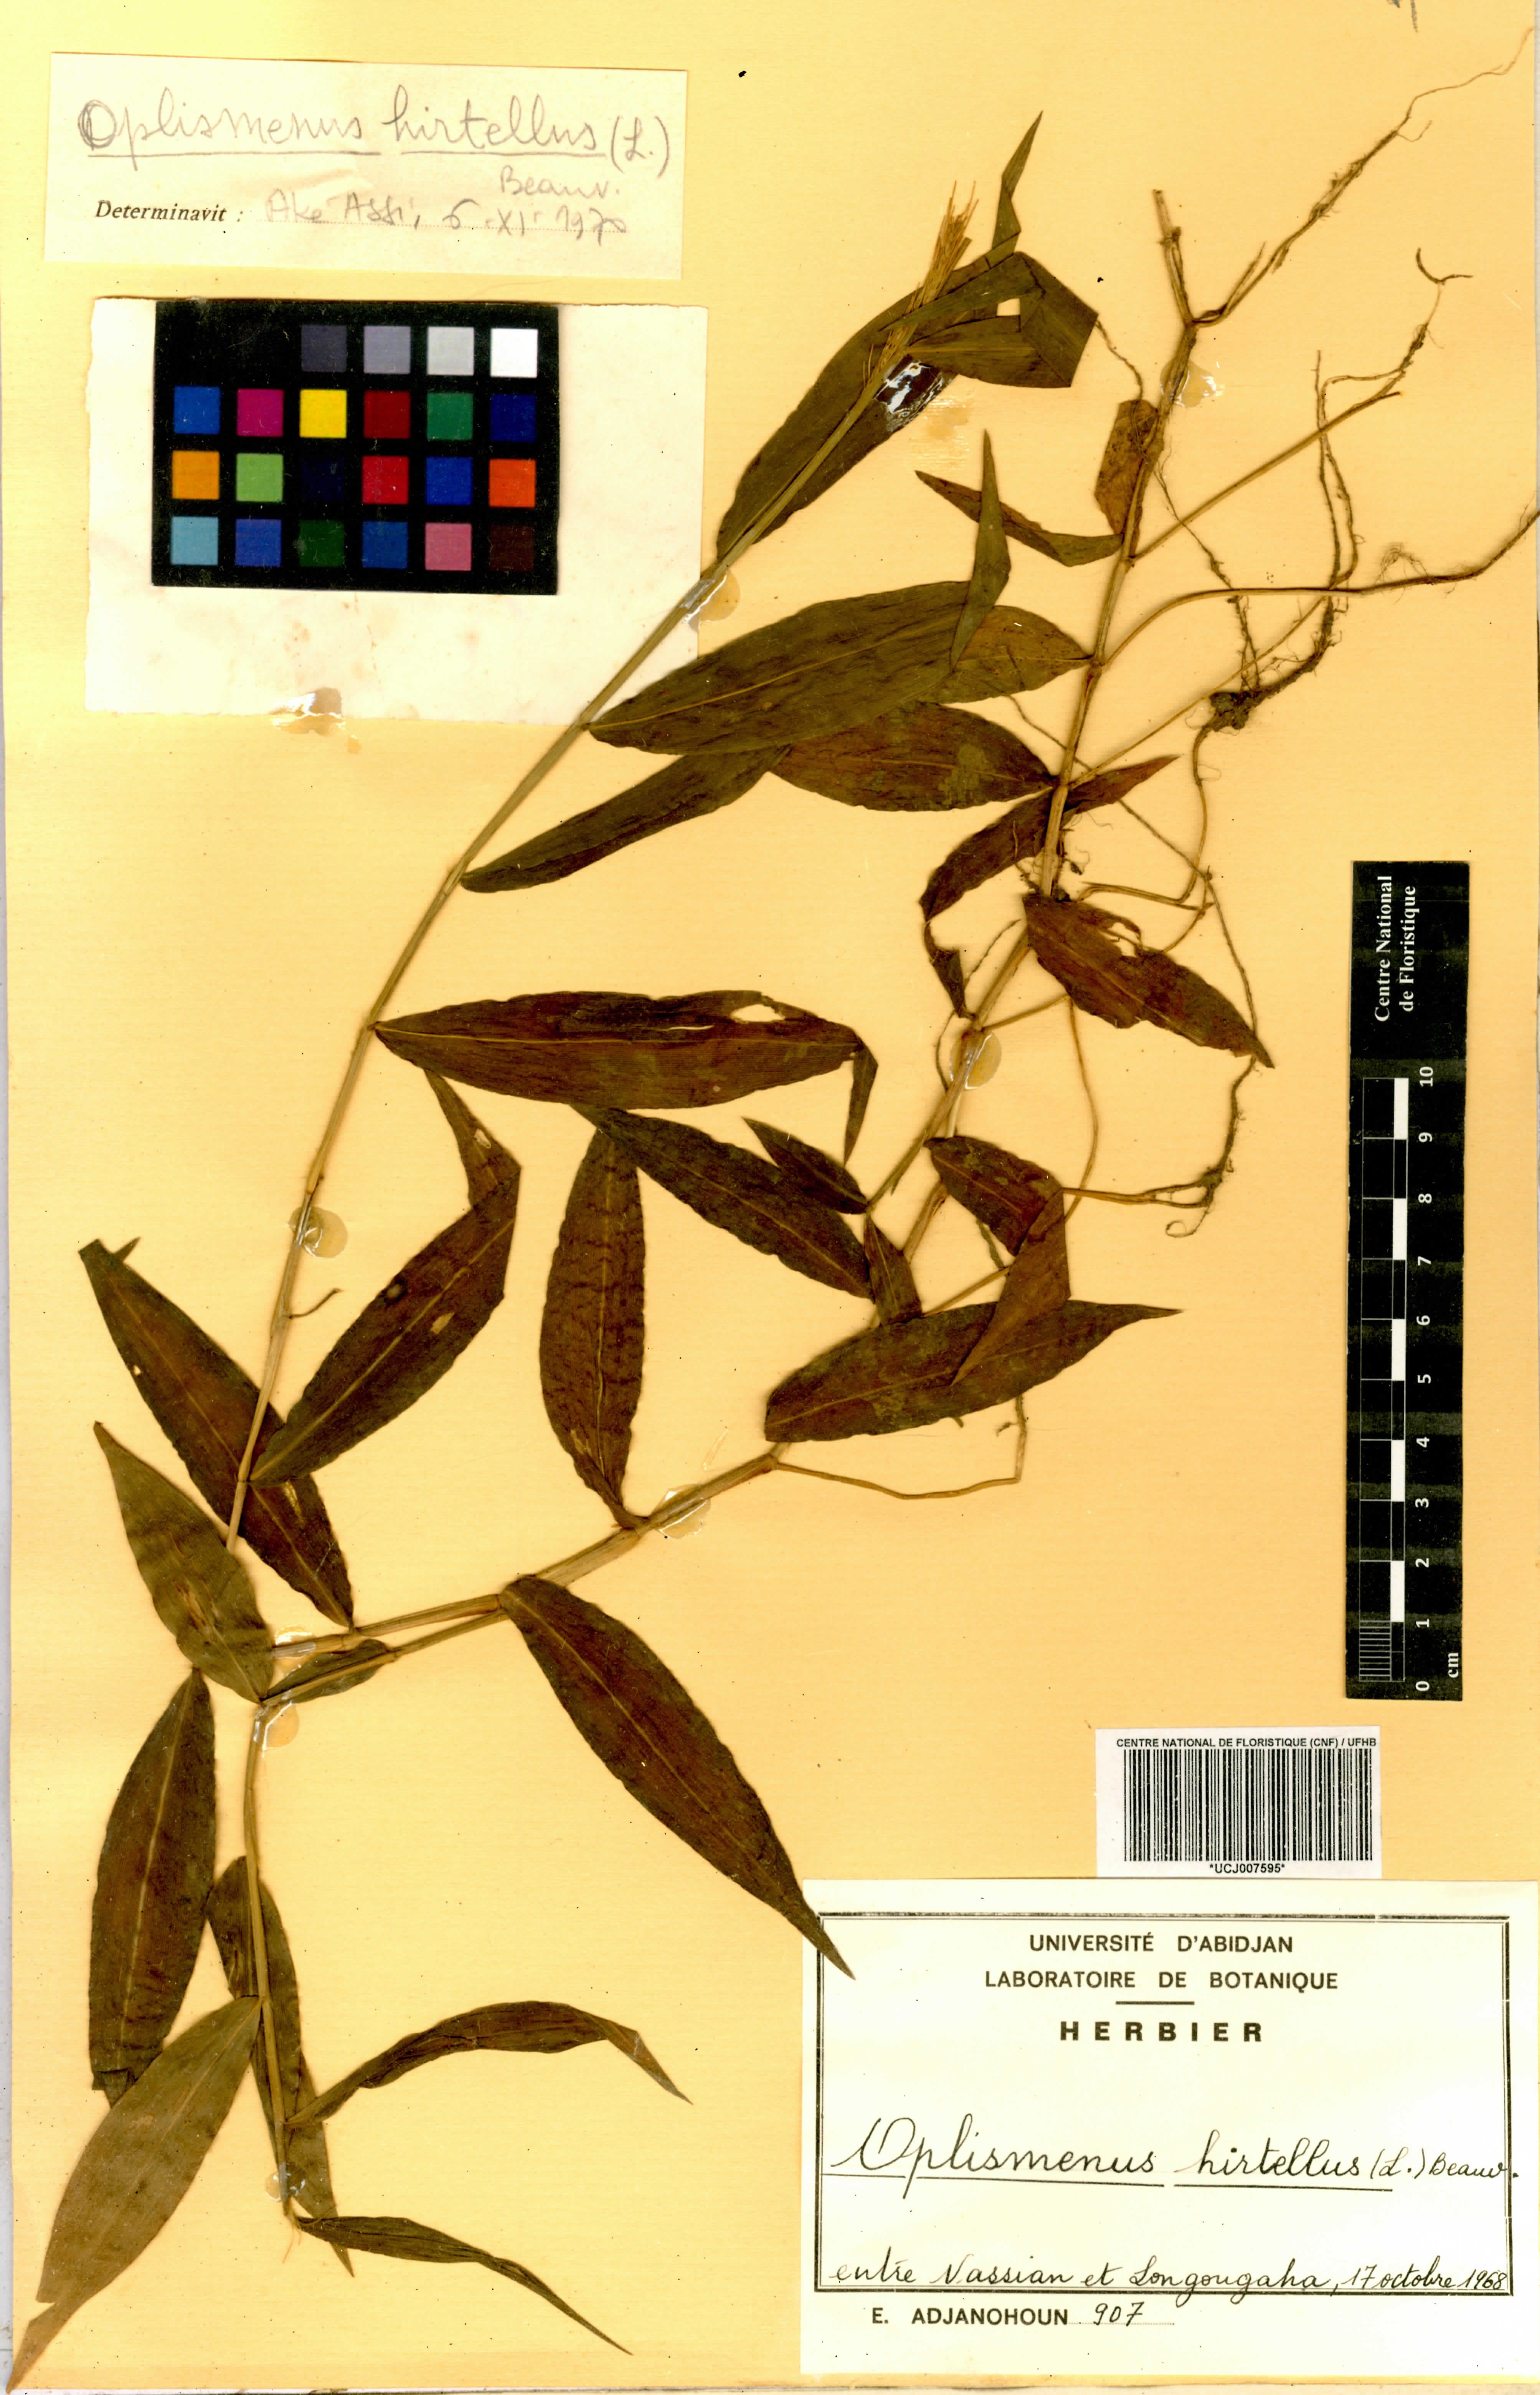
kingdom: Plantae
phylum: Tracheophyta
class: Liliopsida
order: Poales
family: Poaceae
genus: Oplismenus
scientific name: Oplismenus hirtellus
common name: Basketgrass
